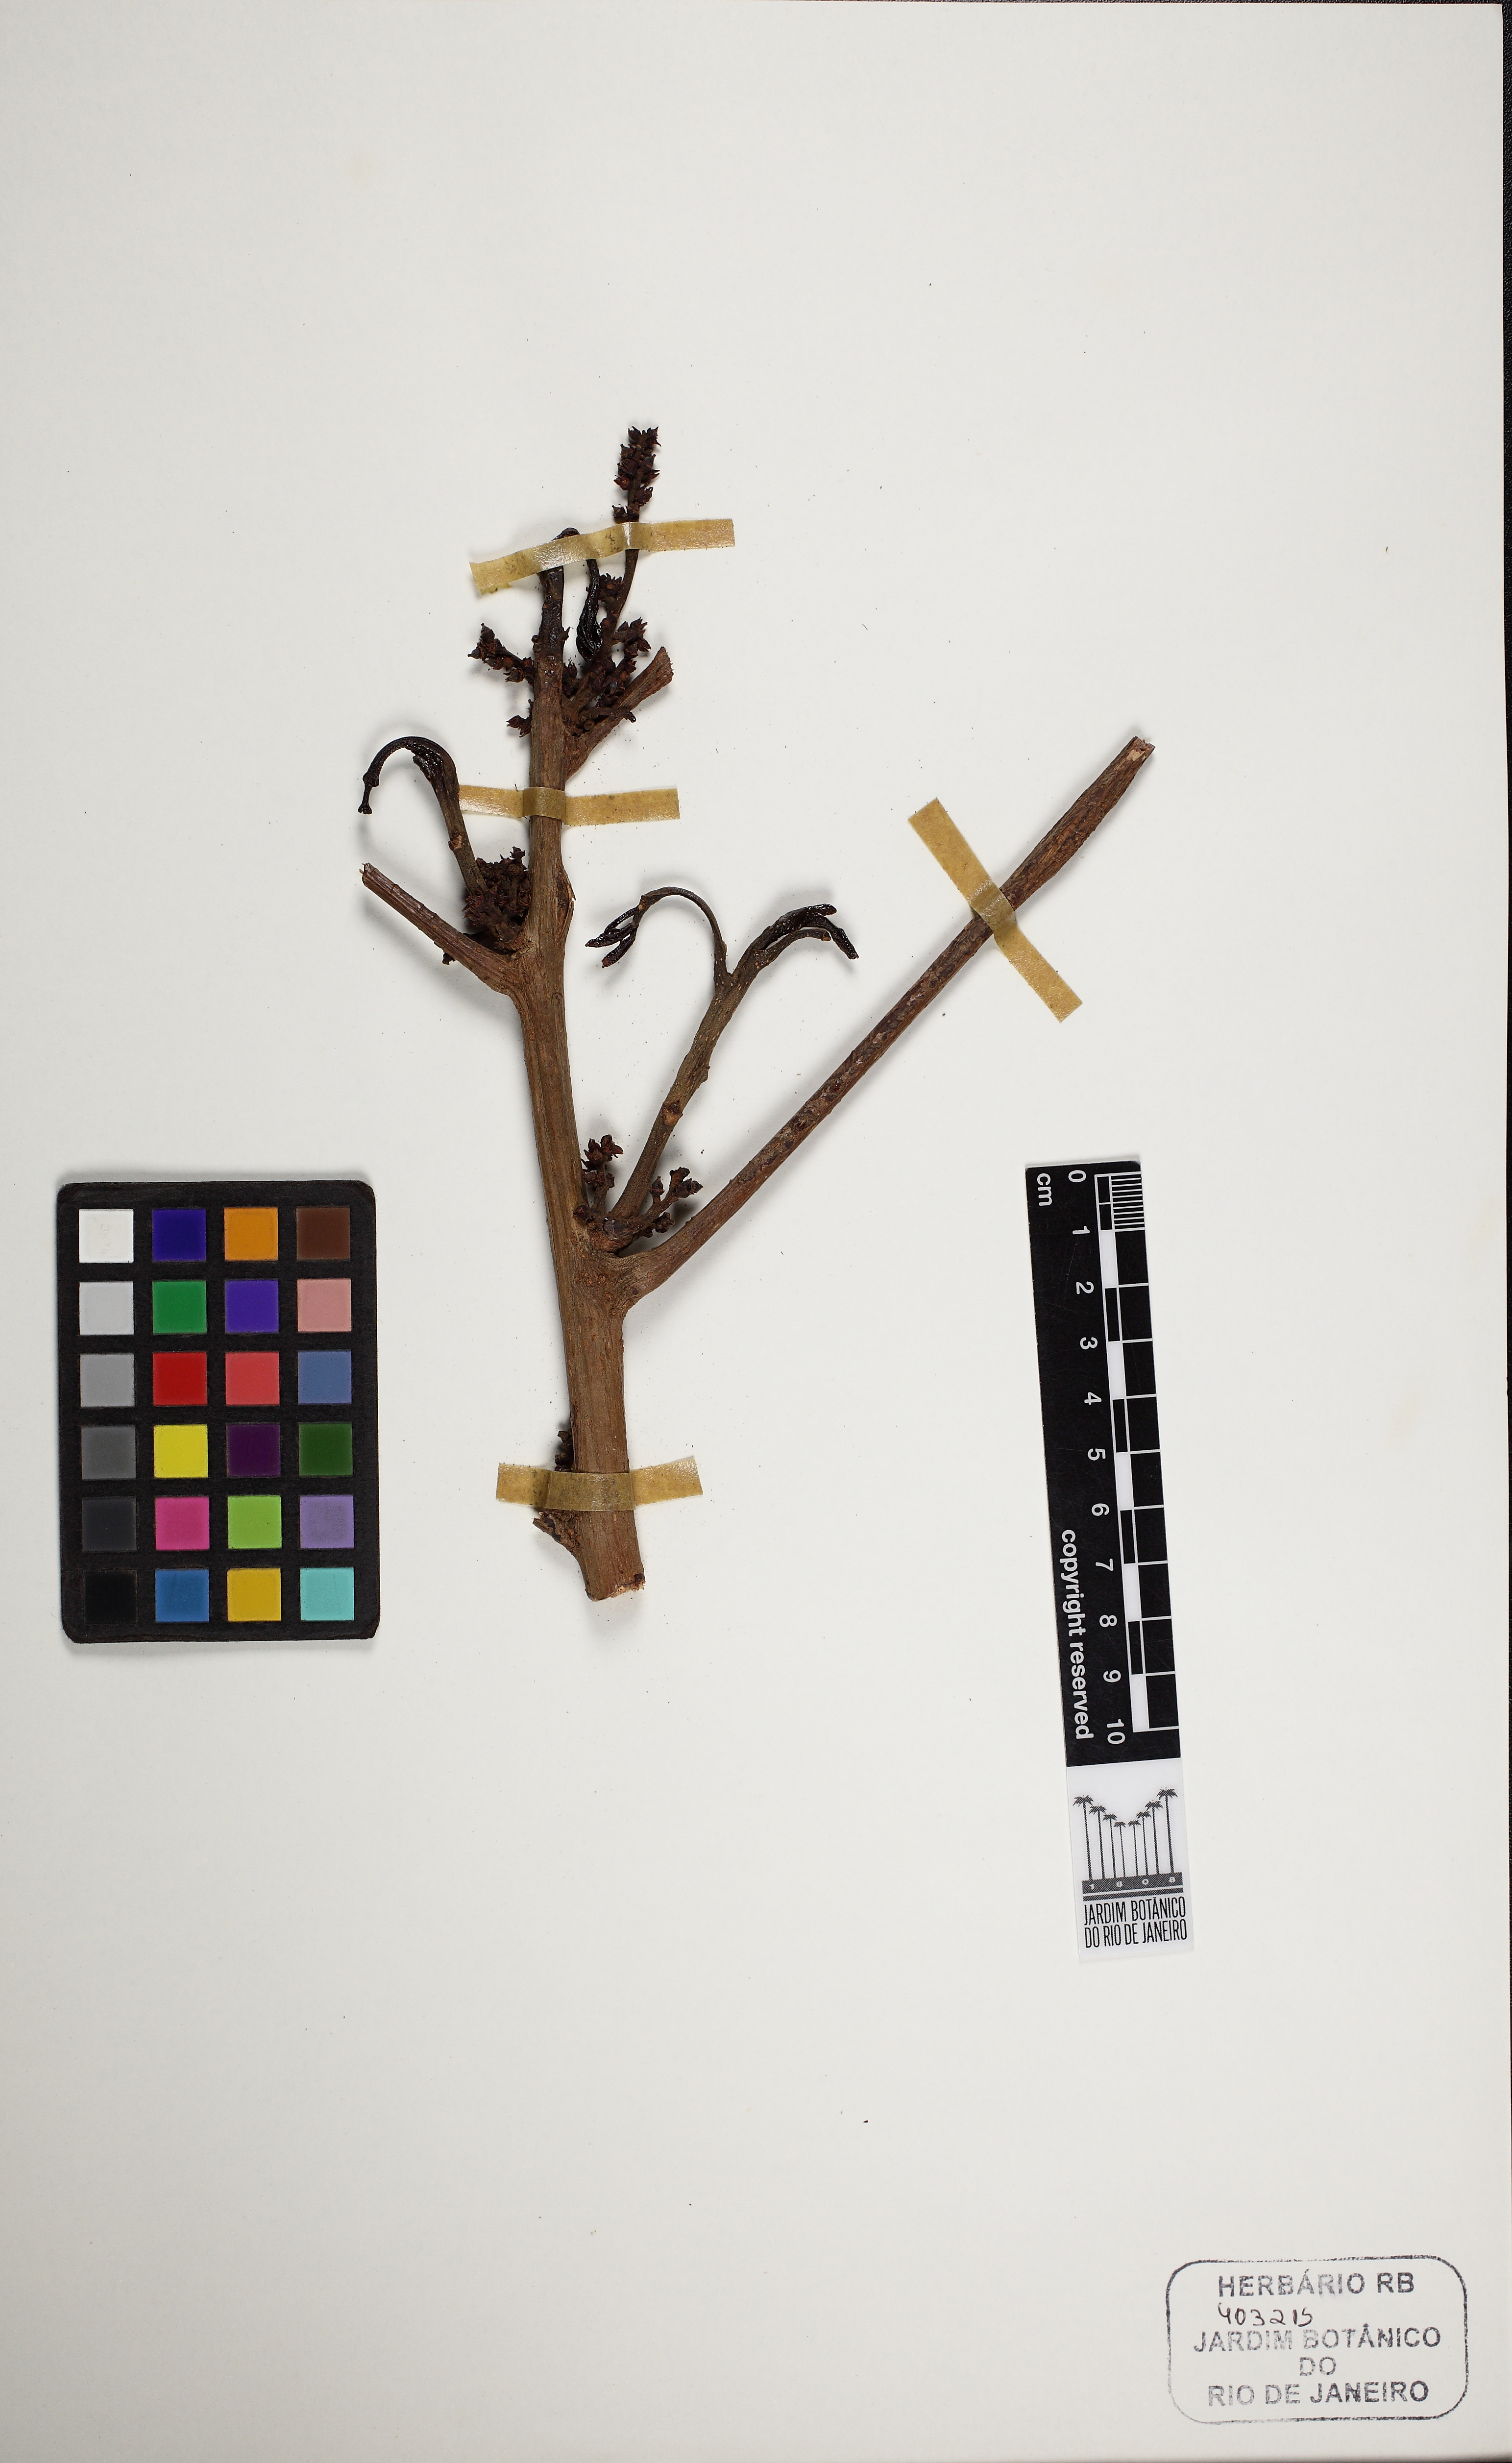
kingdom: Plantae
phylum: Tracheophyta
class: Magnoliopsida
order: Sapindales
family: Burseraceae
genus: Protium
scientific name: Protium warmingianum
